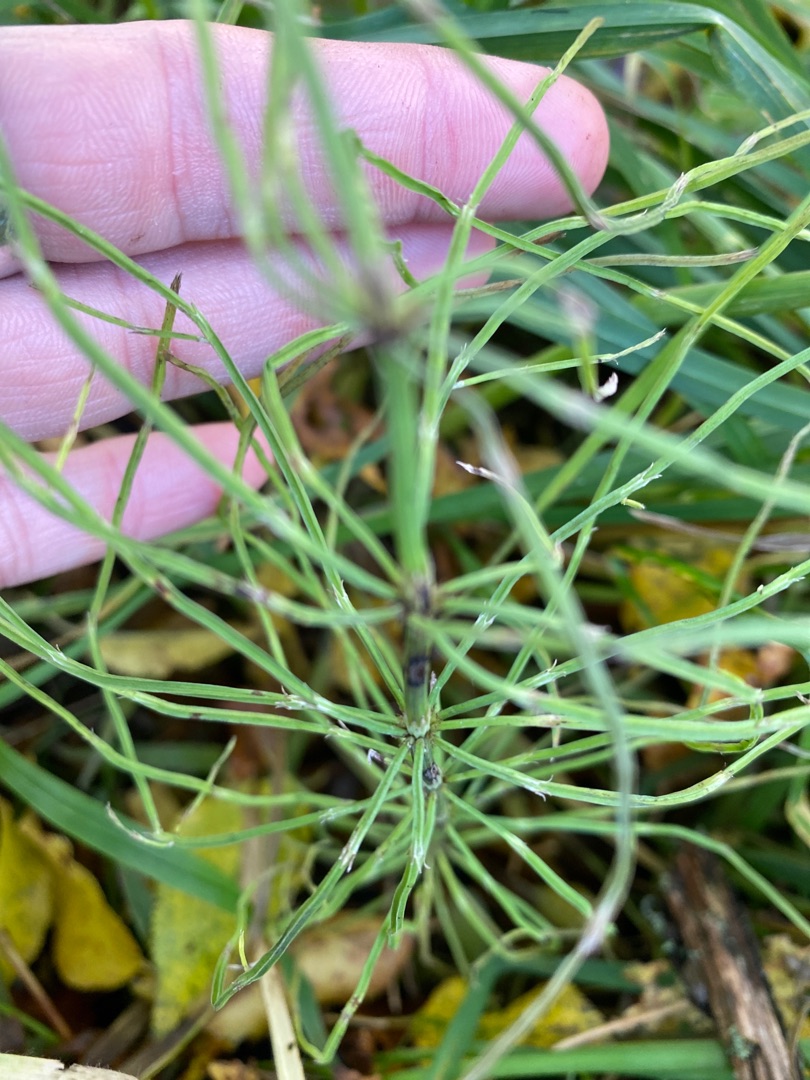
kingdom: Plantae
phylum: Tracheophyta
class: Polypodiopsida
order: Equisetales
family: Equisetaceae
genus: Equisetum
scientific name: Equisetum arvense
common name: Ager-padderok
